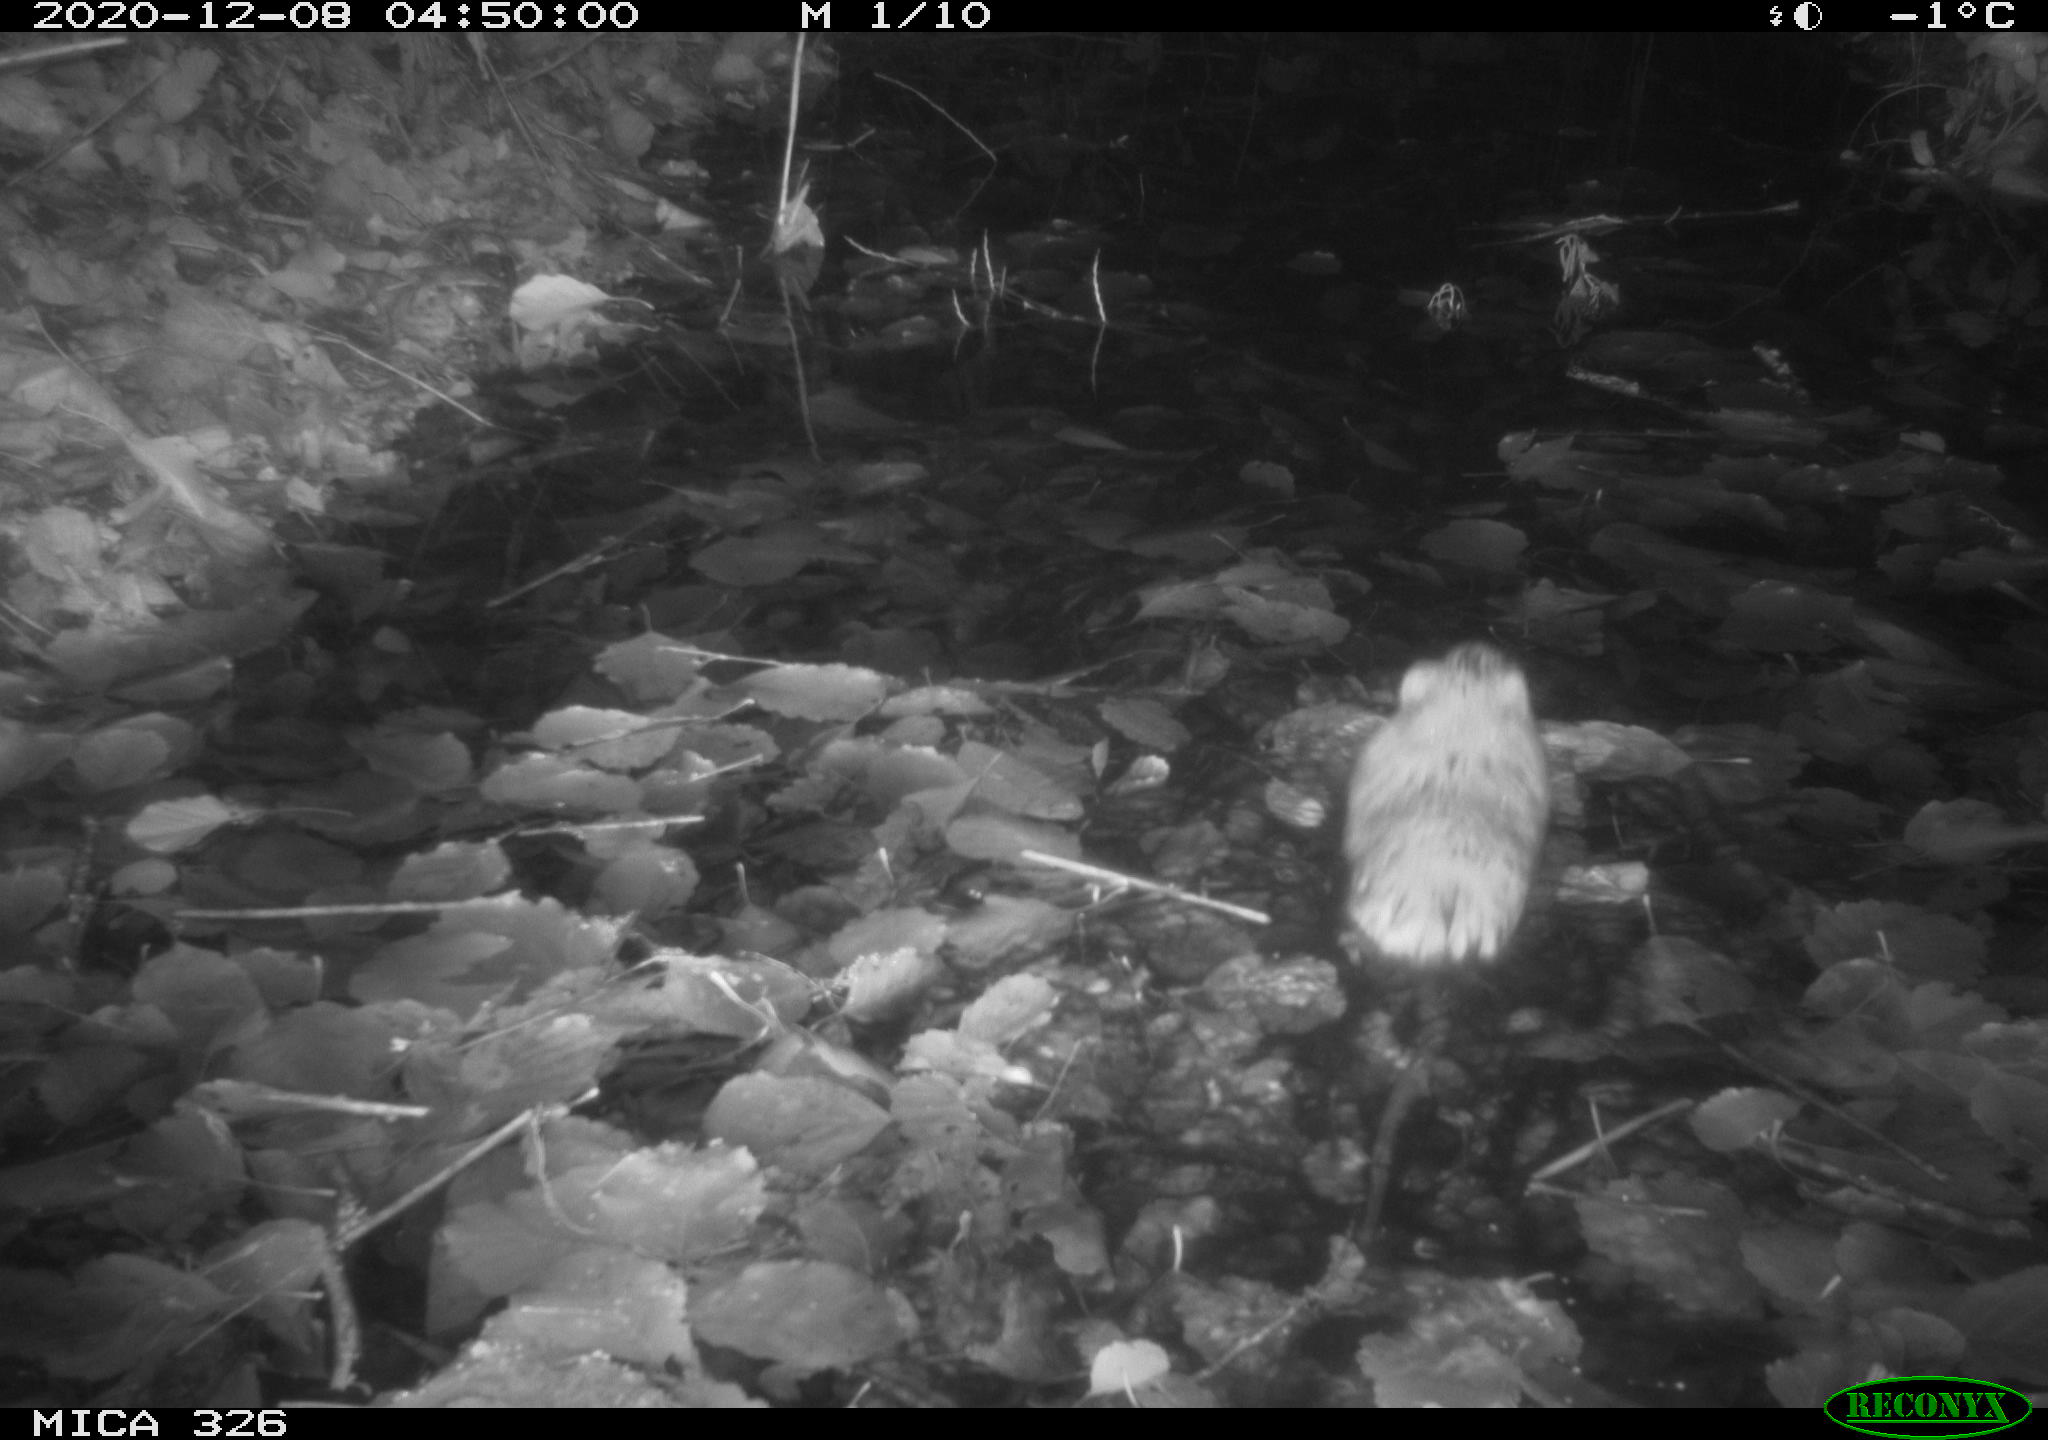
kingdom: Animalia
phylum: Chordata
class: Mammalia
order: Rodentia
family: Cricetidae
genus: Ondatra
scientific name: Ondatra zibethicus
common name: Muskrat
